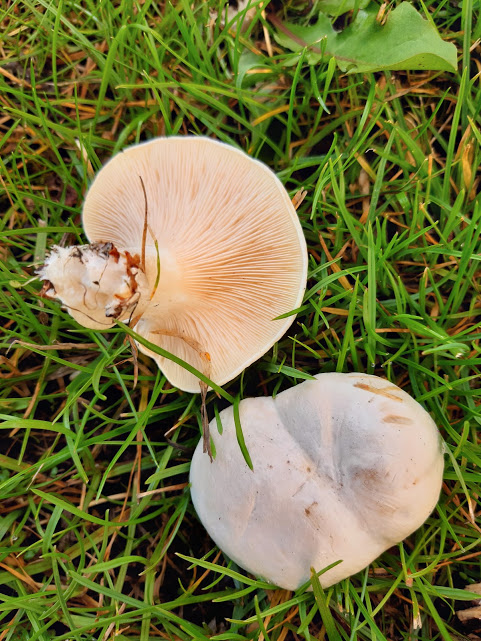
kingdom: Fungi
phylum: Basidiomycota
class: Agaricomycetes
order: Agaricales
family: Entolomataceae
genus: Clitopilus
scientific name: Clitopilus prunulus
